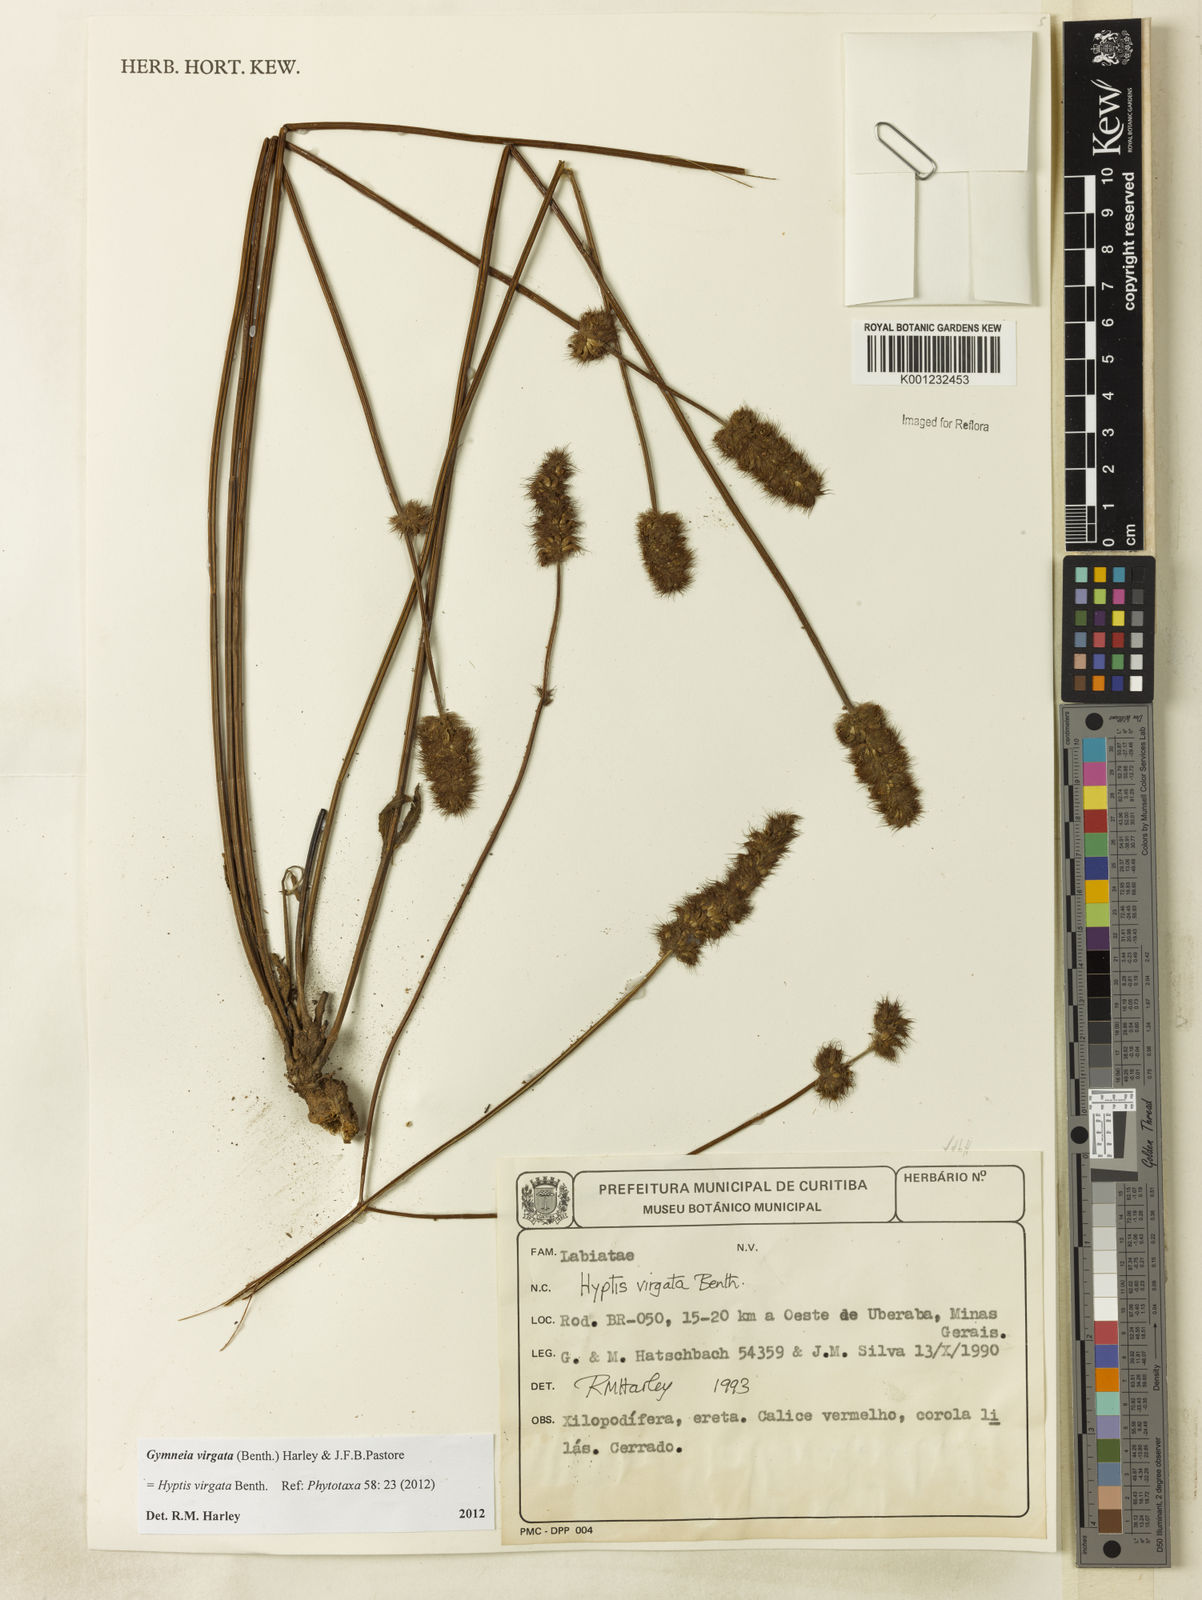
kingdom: Plantae
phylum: Tracheophyta
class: Magnoliopsida
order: Lamiales
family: Lamiaceae
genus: Gymneia
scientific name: Gymneia virgata
